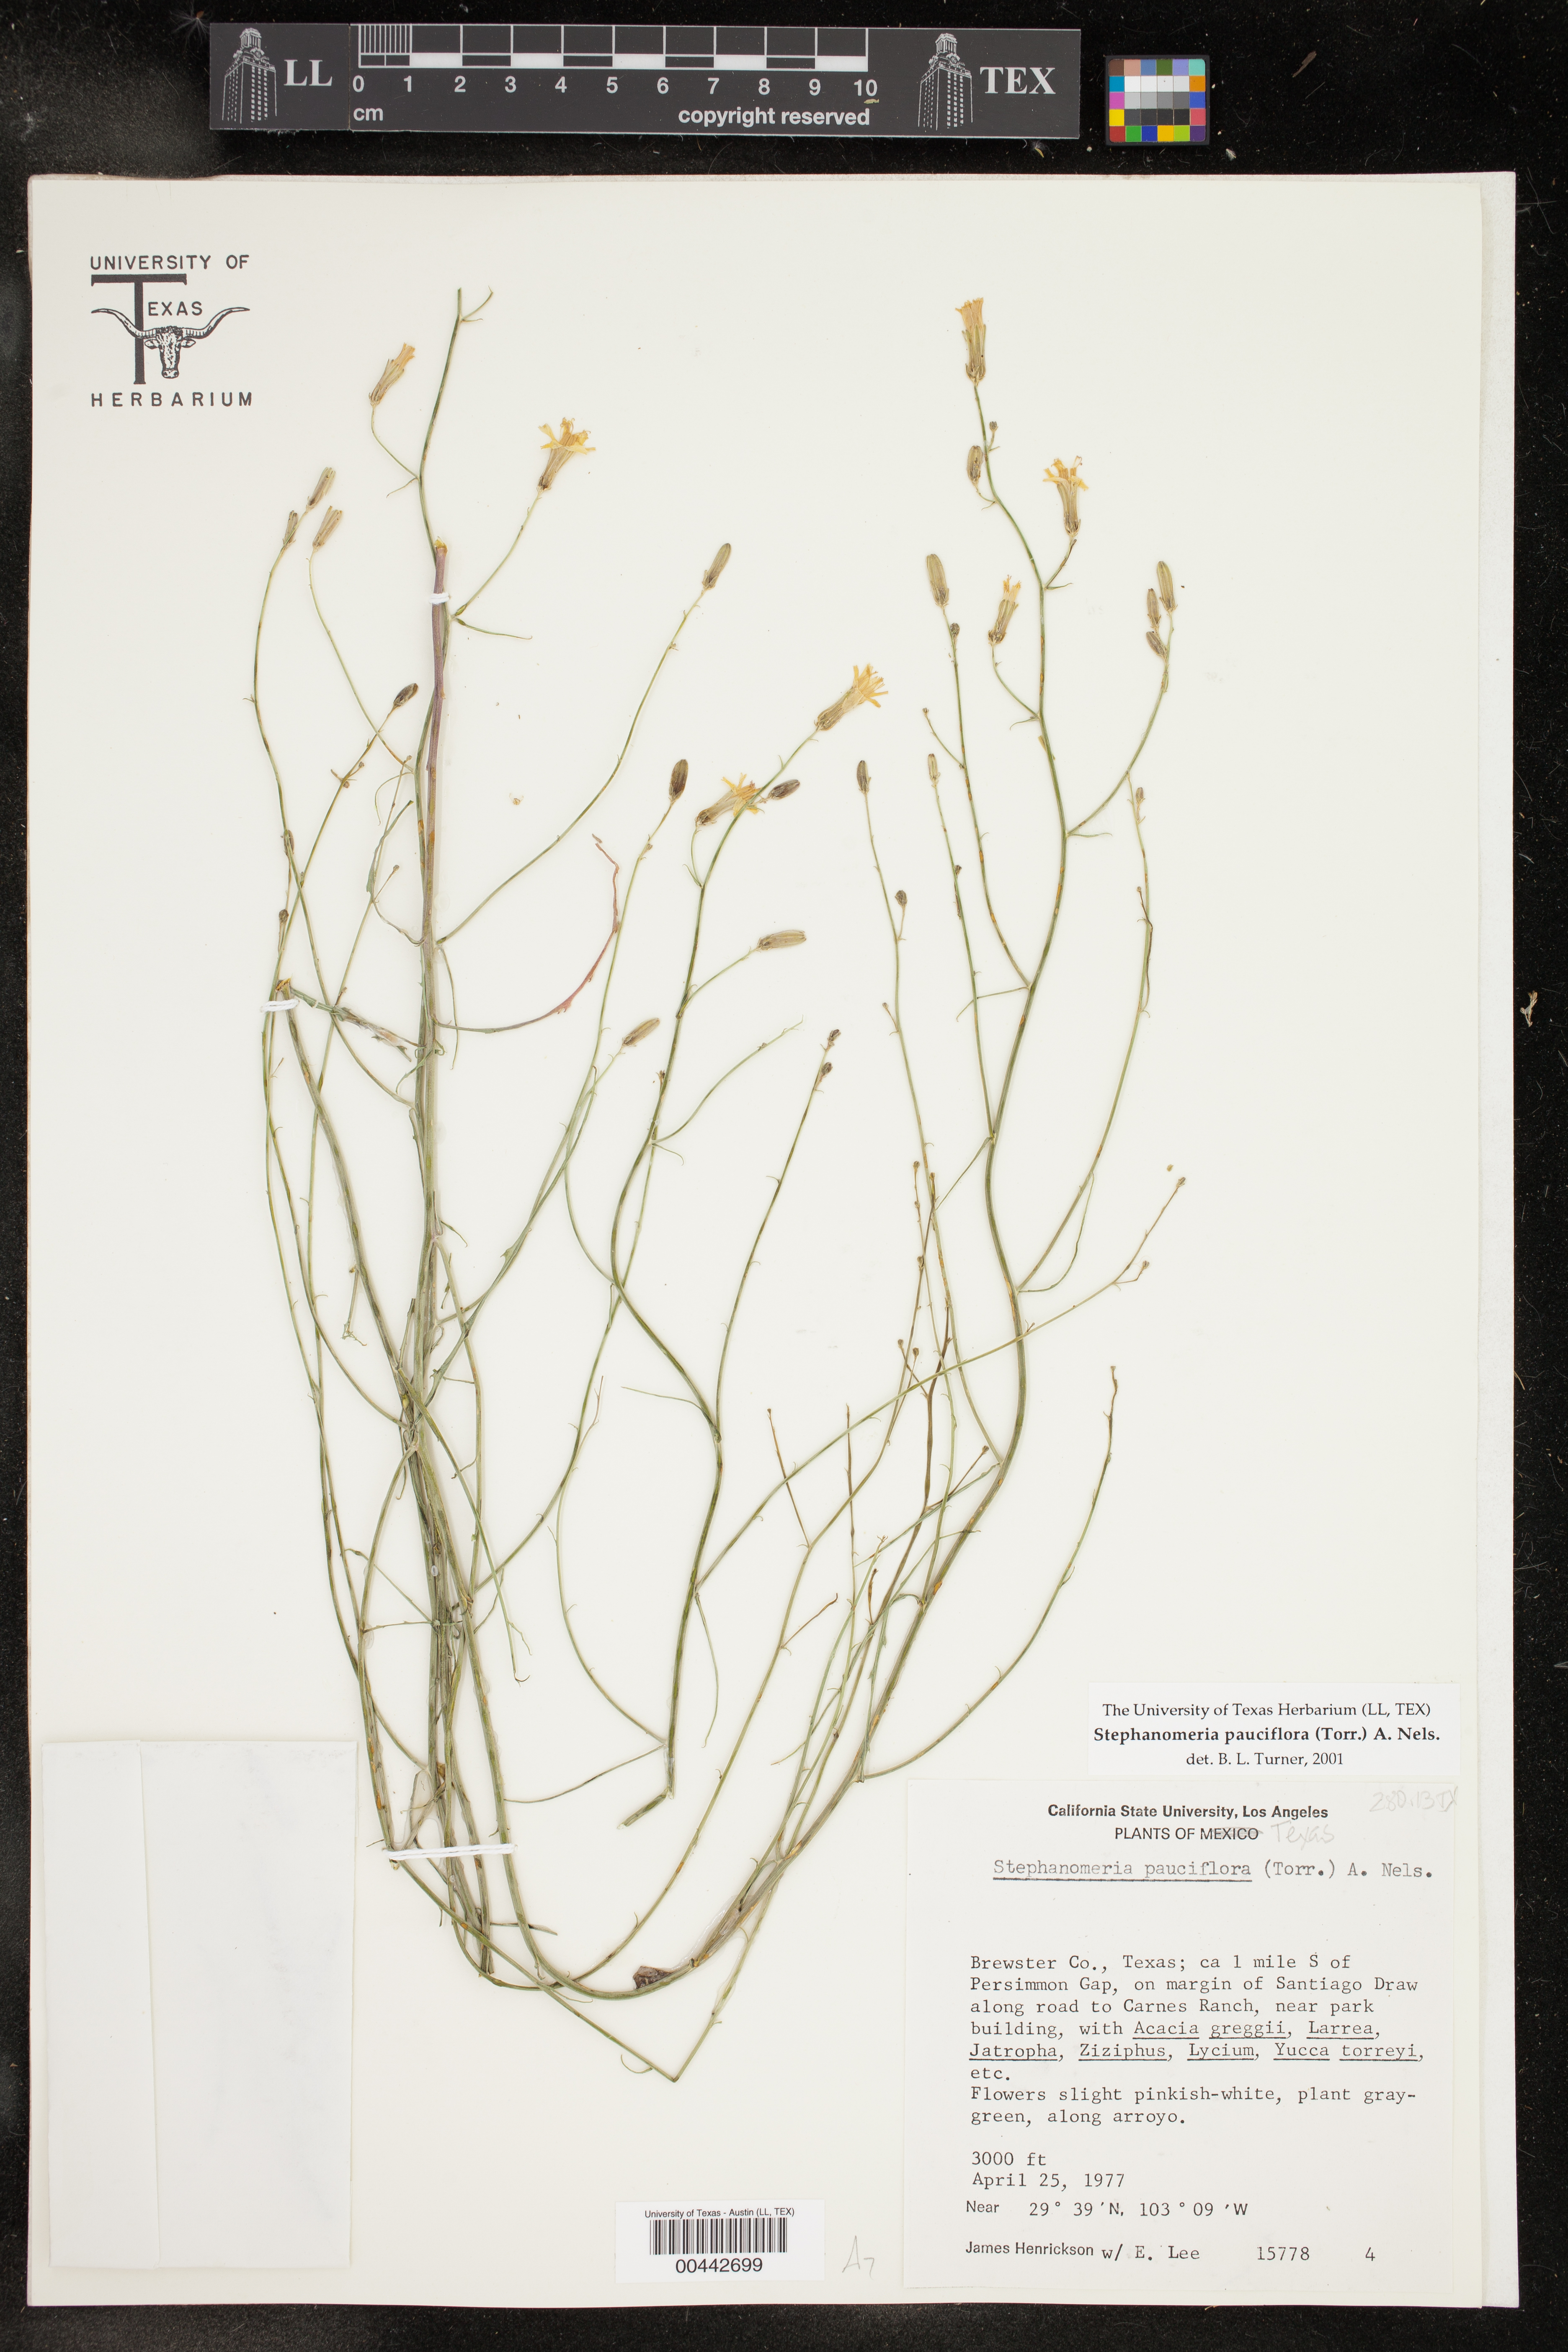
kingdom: Plantae
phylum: Tracheophyta
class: Magnoliopsida
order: Asterales
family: Asteraceae
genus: Stephanomeria
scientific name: Stephanomeria pauciflora
